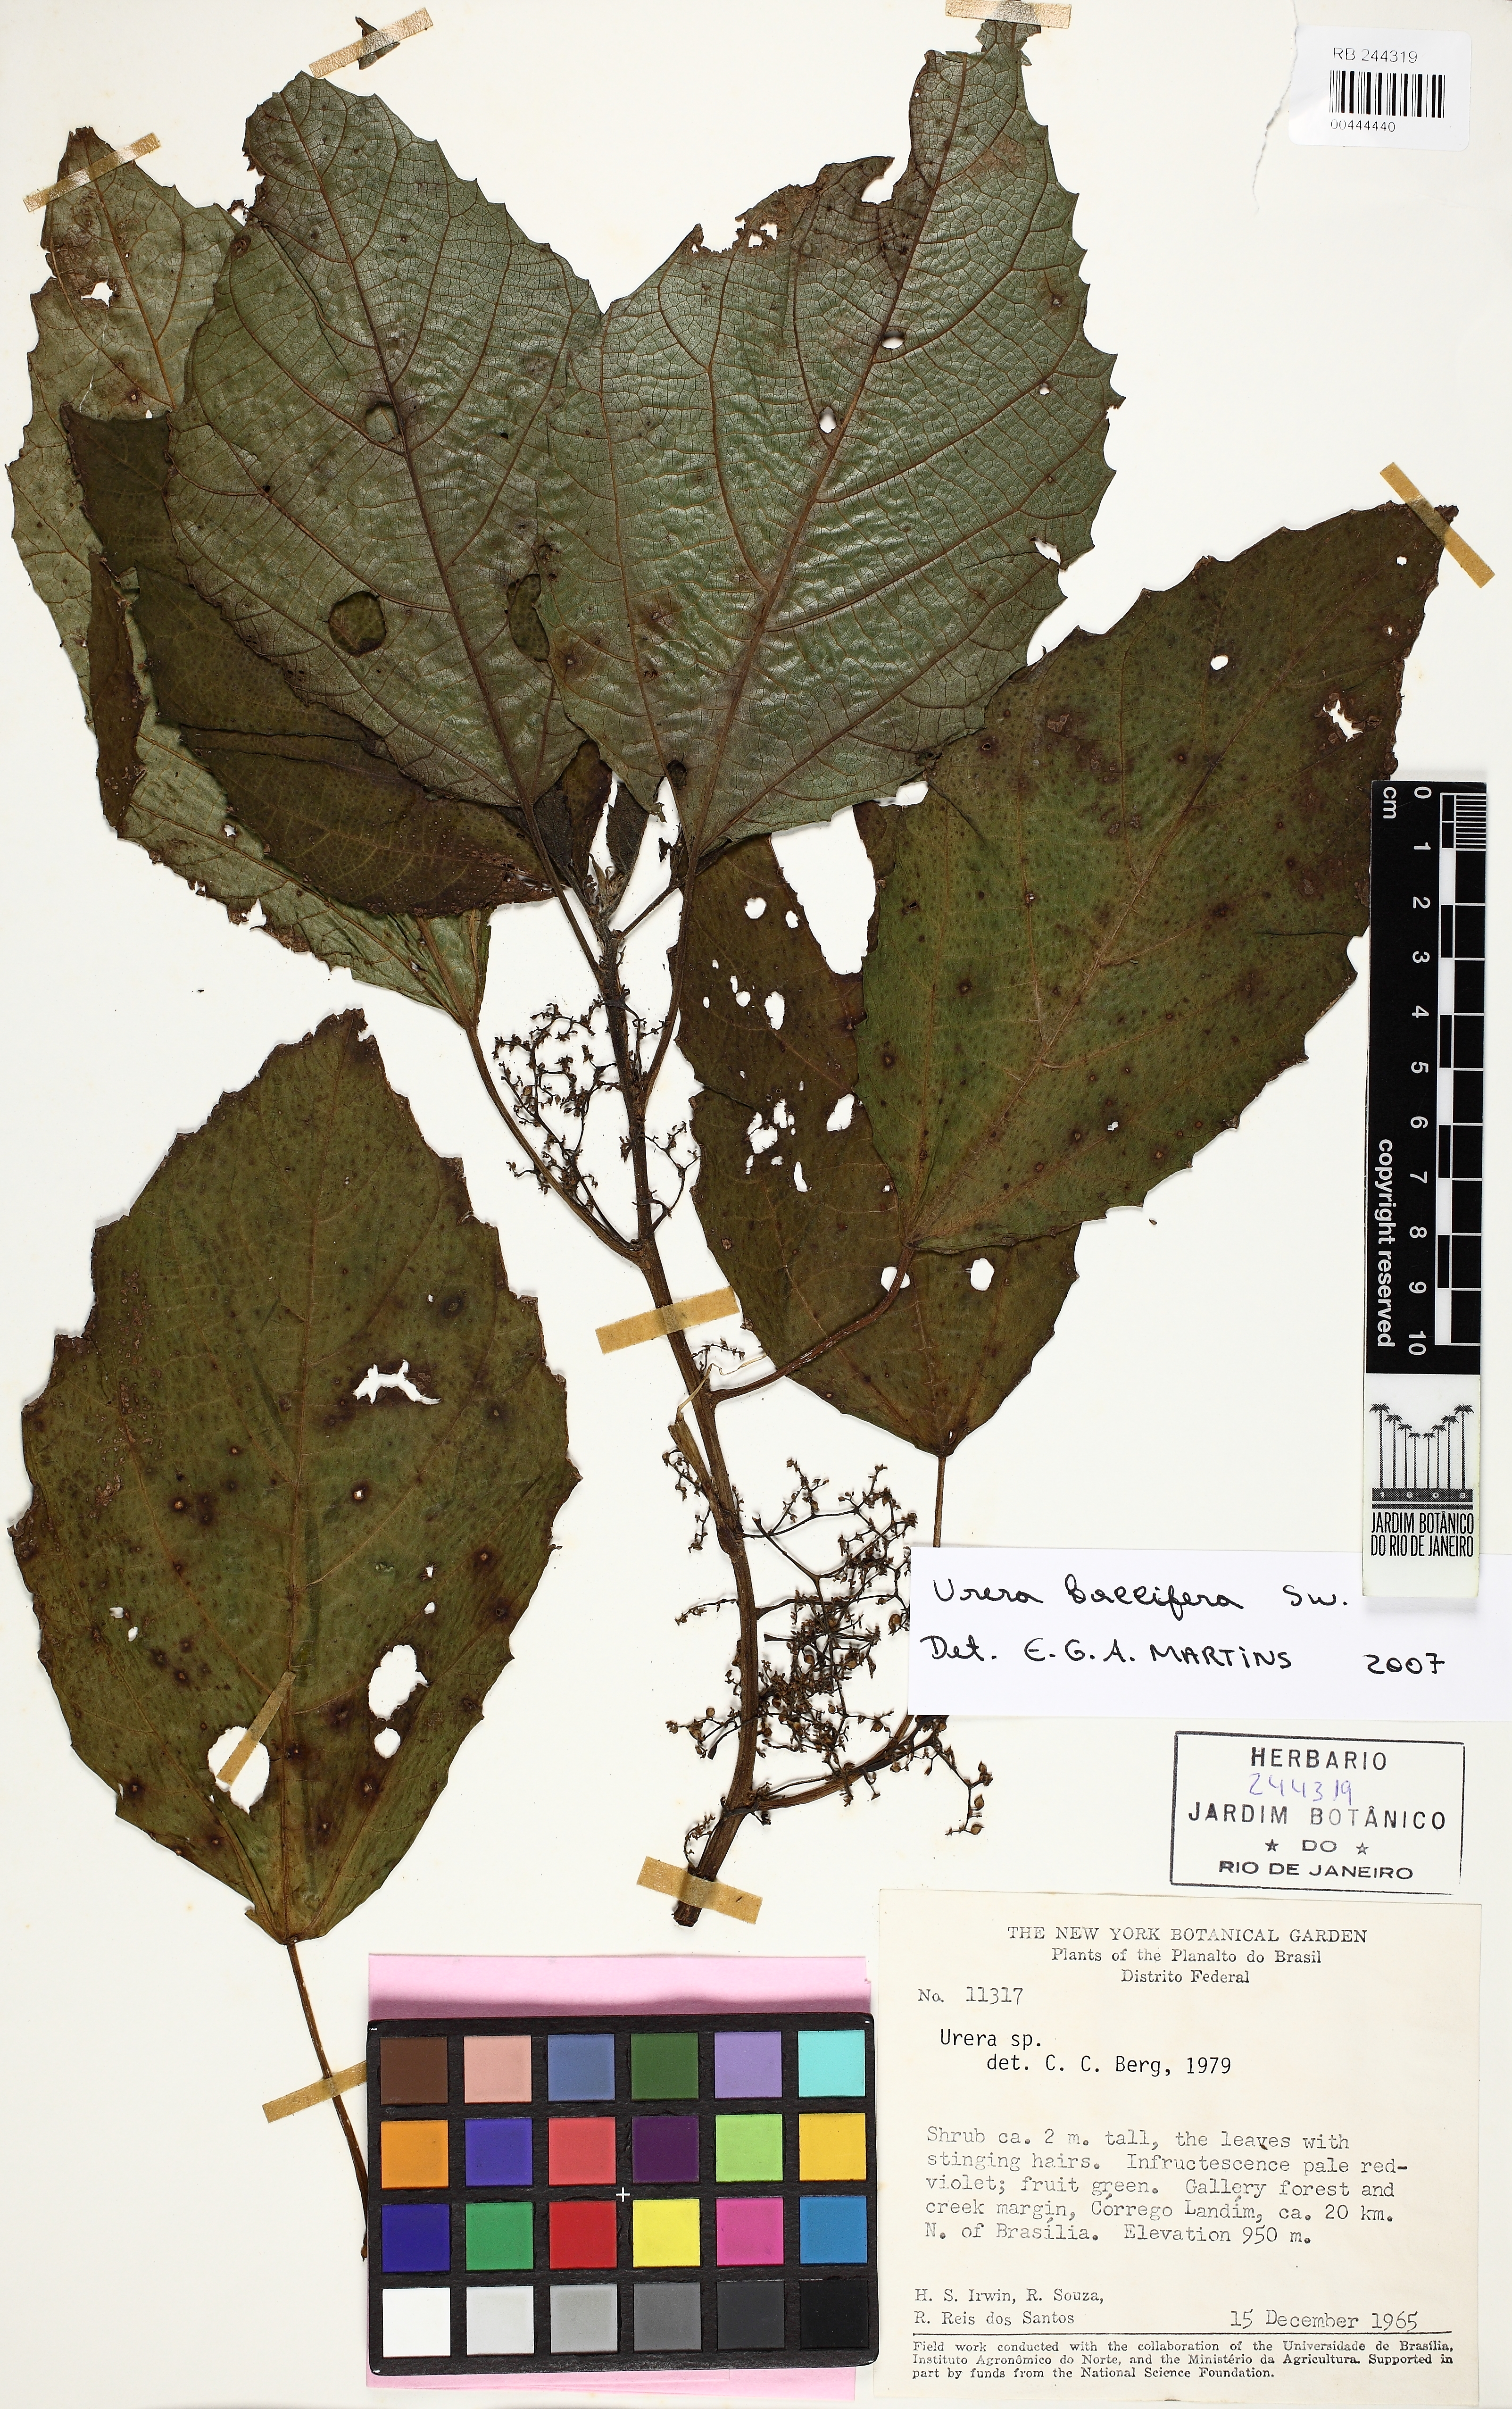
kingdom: Plantae
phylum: Tracheophyta
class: Magnoliopsida
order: Rosales
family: Urticaceae
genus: Urera
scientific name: Urera baccifera
